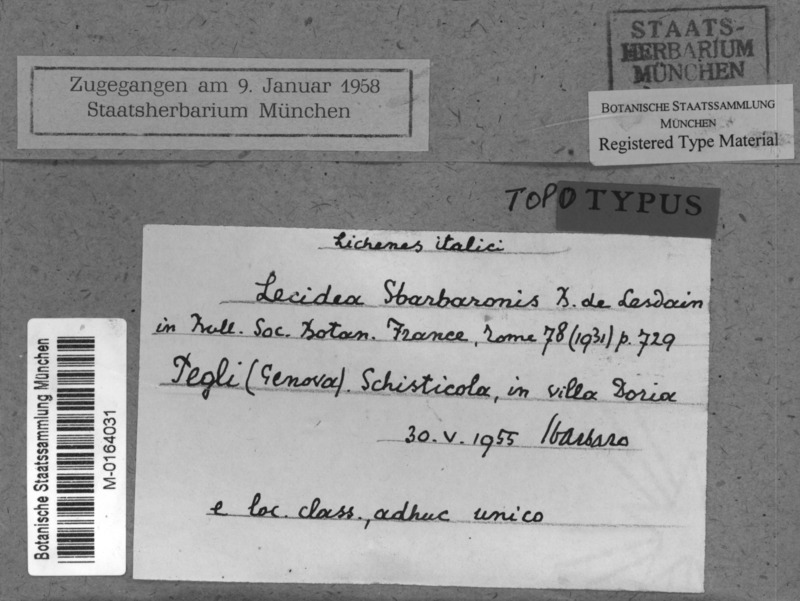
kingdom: Fungi
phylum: Ascomycota
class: Lecanoromycetes
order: Lecideales
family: Lecideaceae
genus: Lecidea
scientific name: Lecidea sbarbaronis
